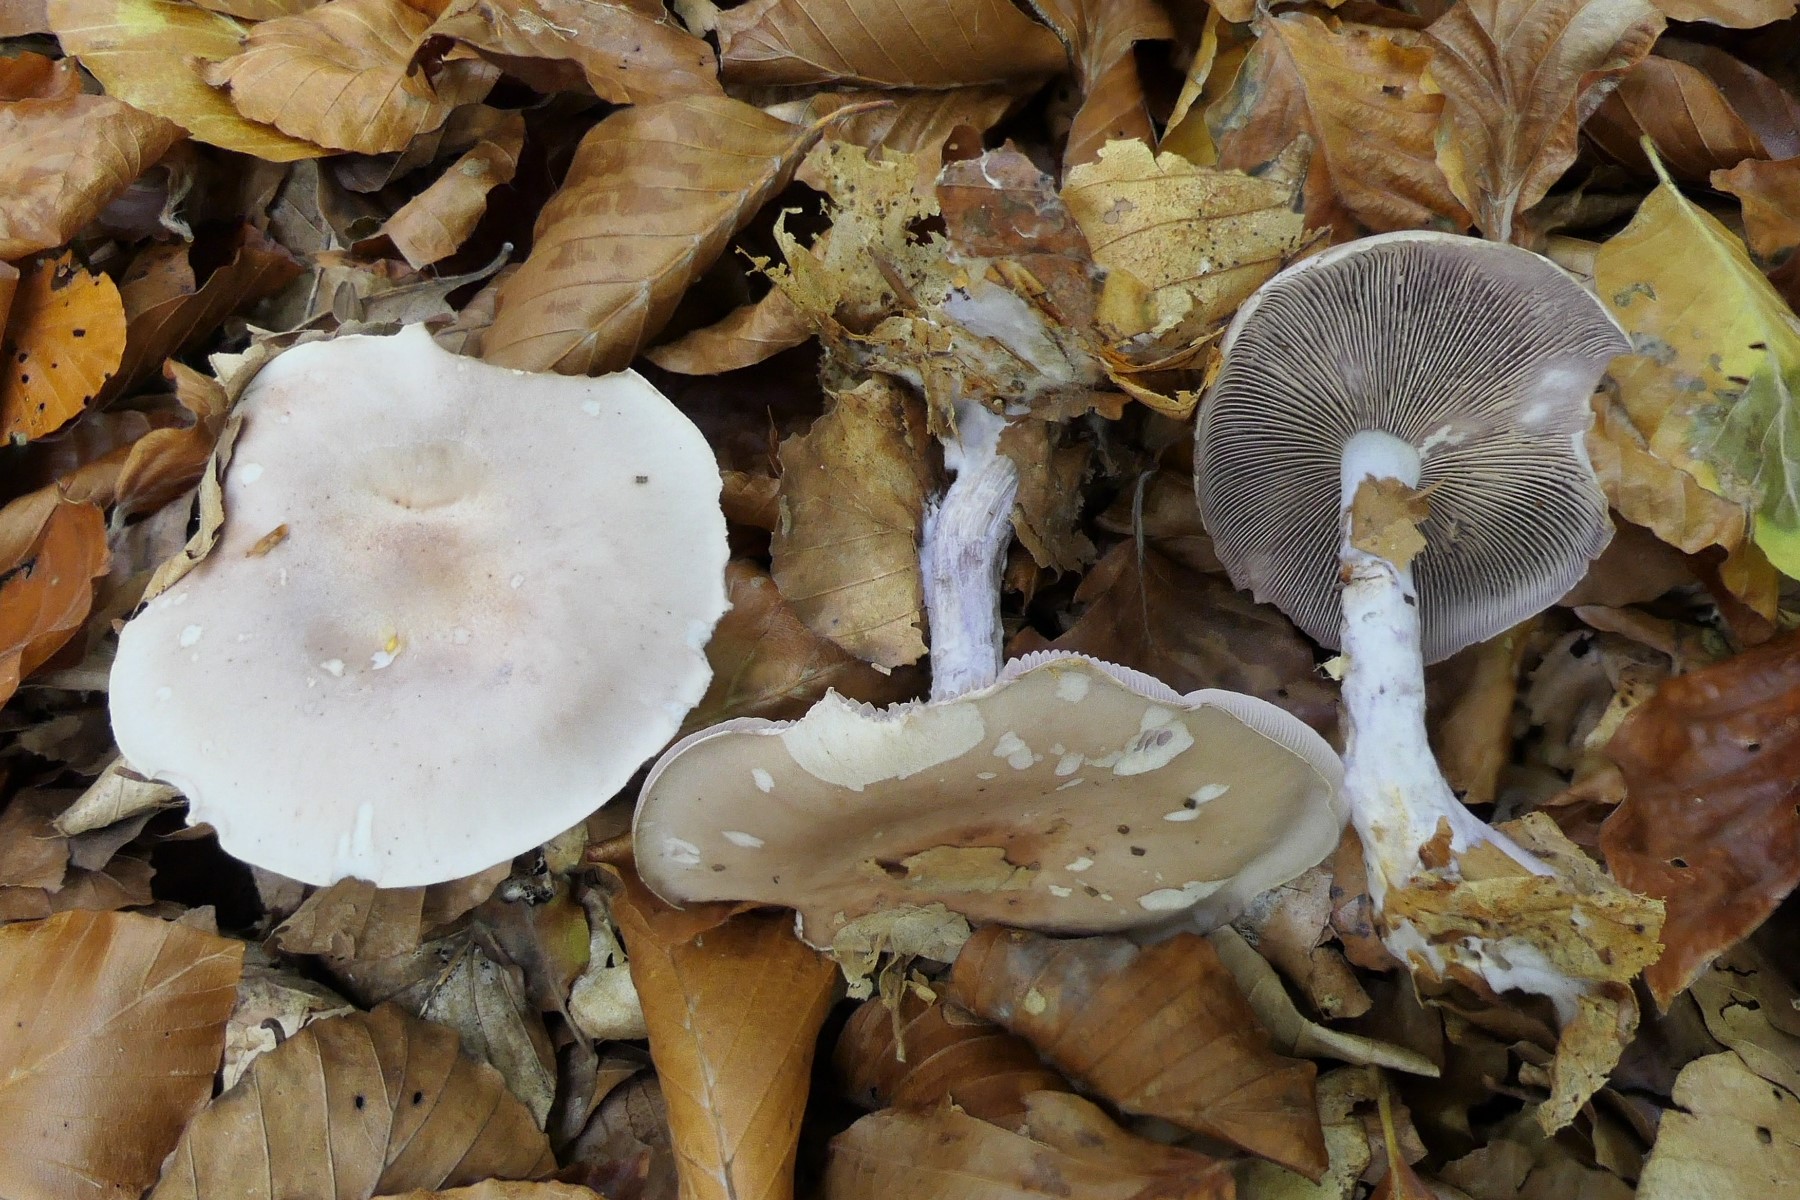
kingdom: Fungi
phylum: Basidiomycota
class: Agaricomycetes
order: Agaricales
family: Tricholomataceae
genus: Lepista
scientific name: Lepista nuda
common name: violet hekseringshat
